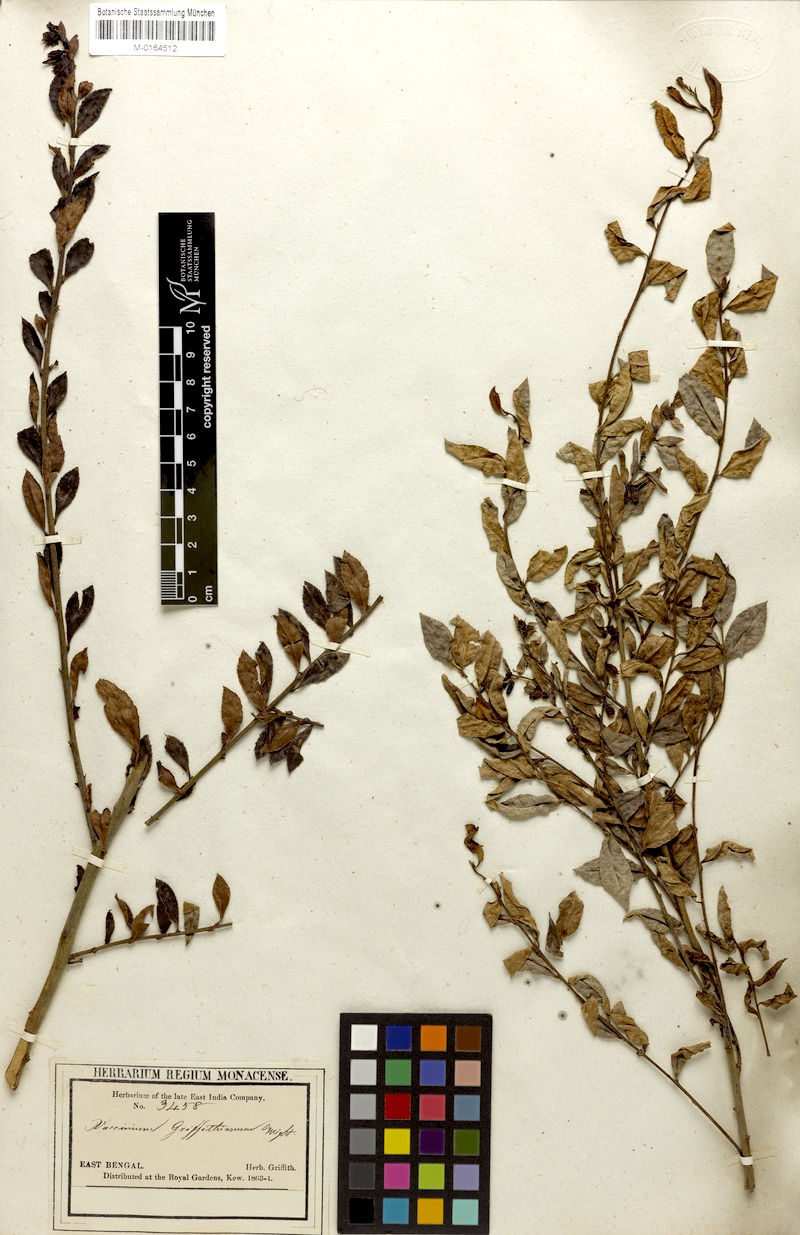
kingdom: Plantae
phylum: Tracheophyta
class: Magnoliopsida
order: Ericales
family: Ericaceae
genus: Vaccinium
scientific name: Vaccinium griffithianum
